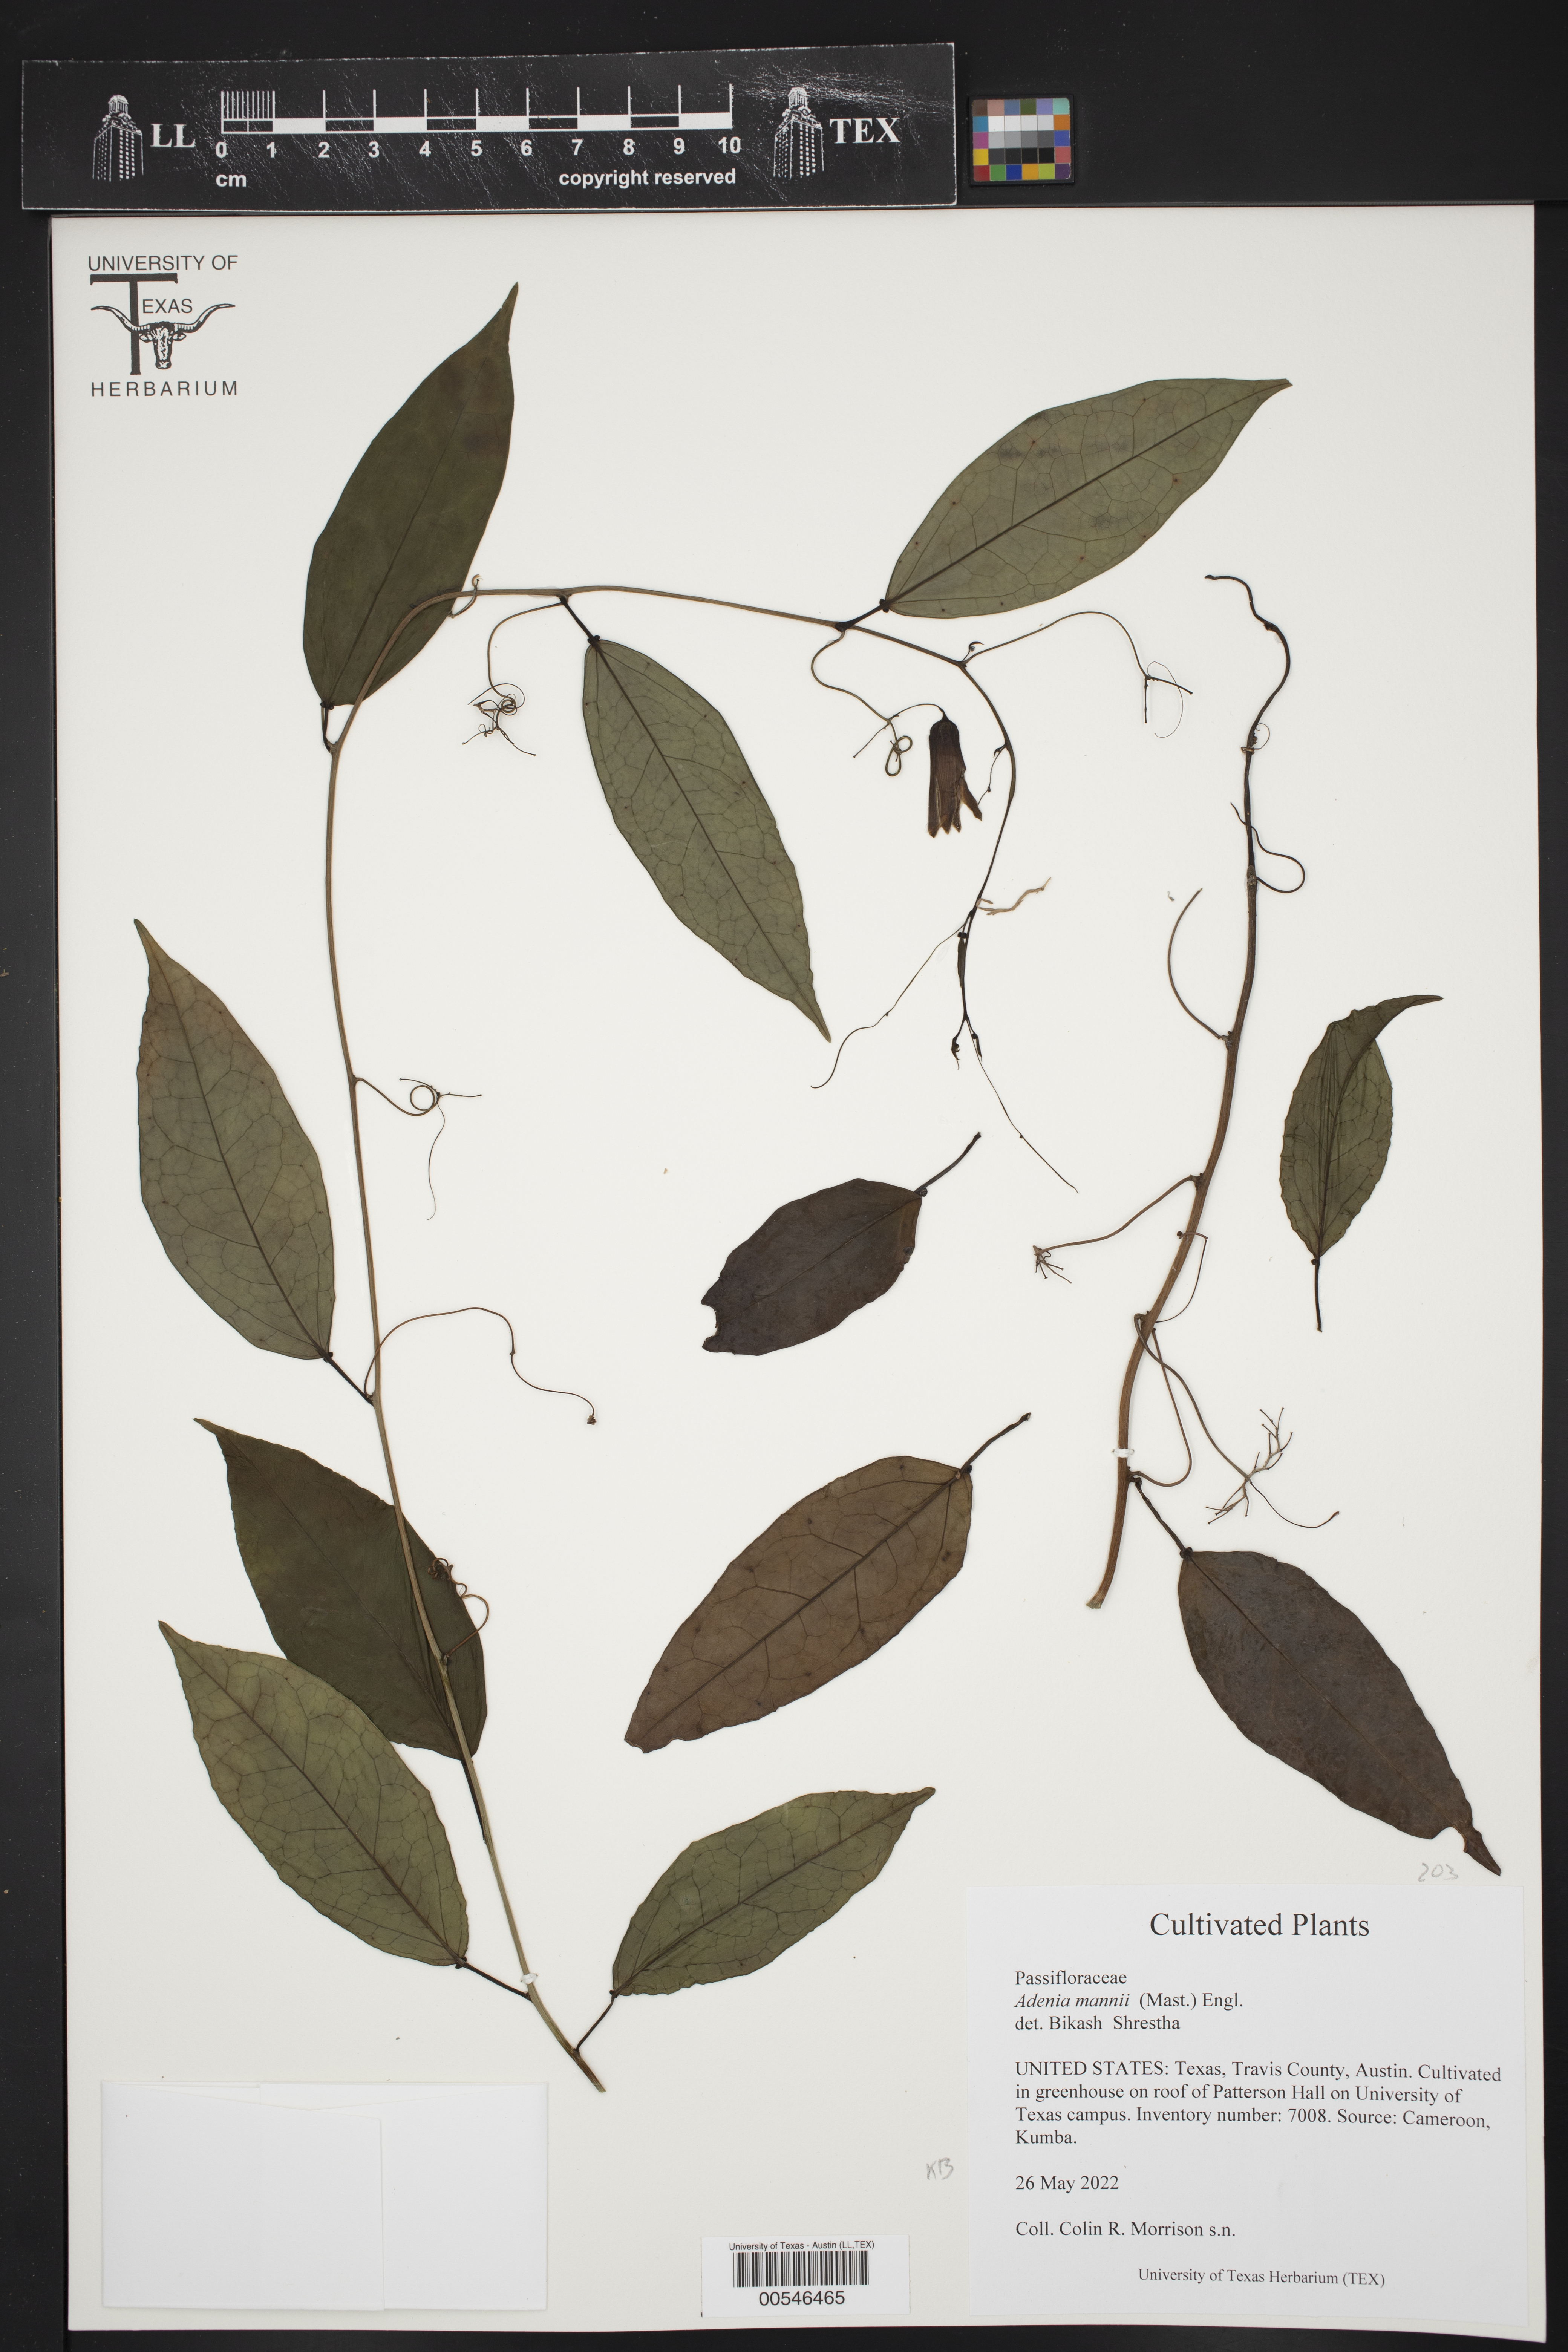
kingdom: Plantae
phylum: Tracheophyta
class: Magnoliopsida
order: Malpighiales
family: Passifloraceae
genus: Adenia
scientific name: Adenia mannii
